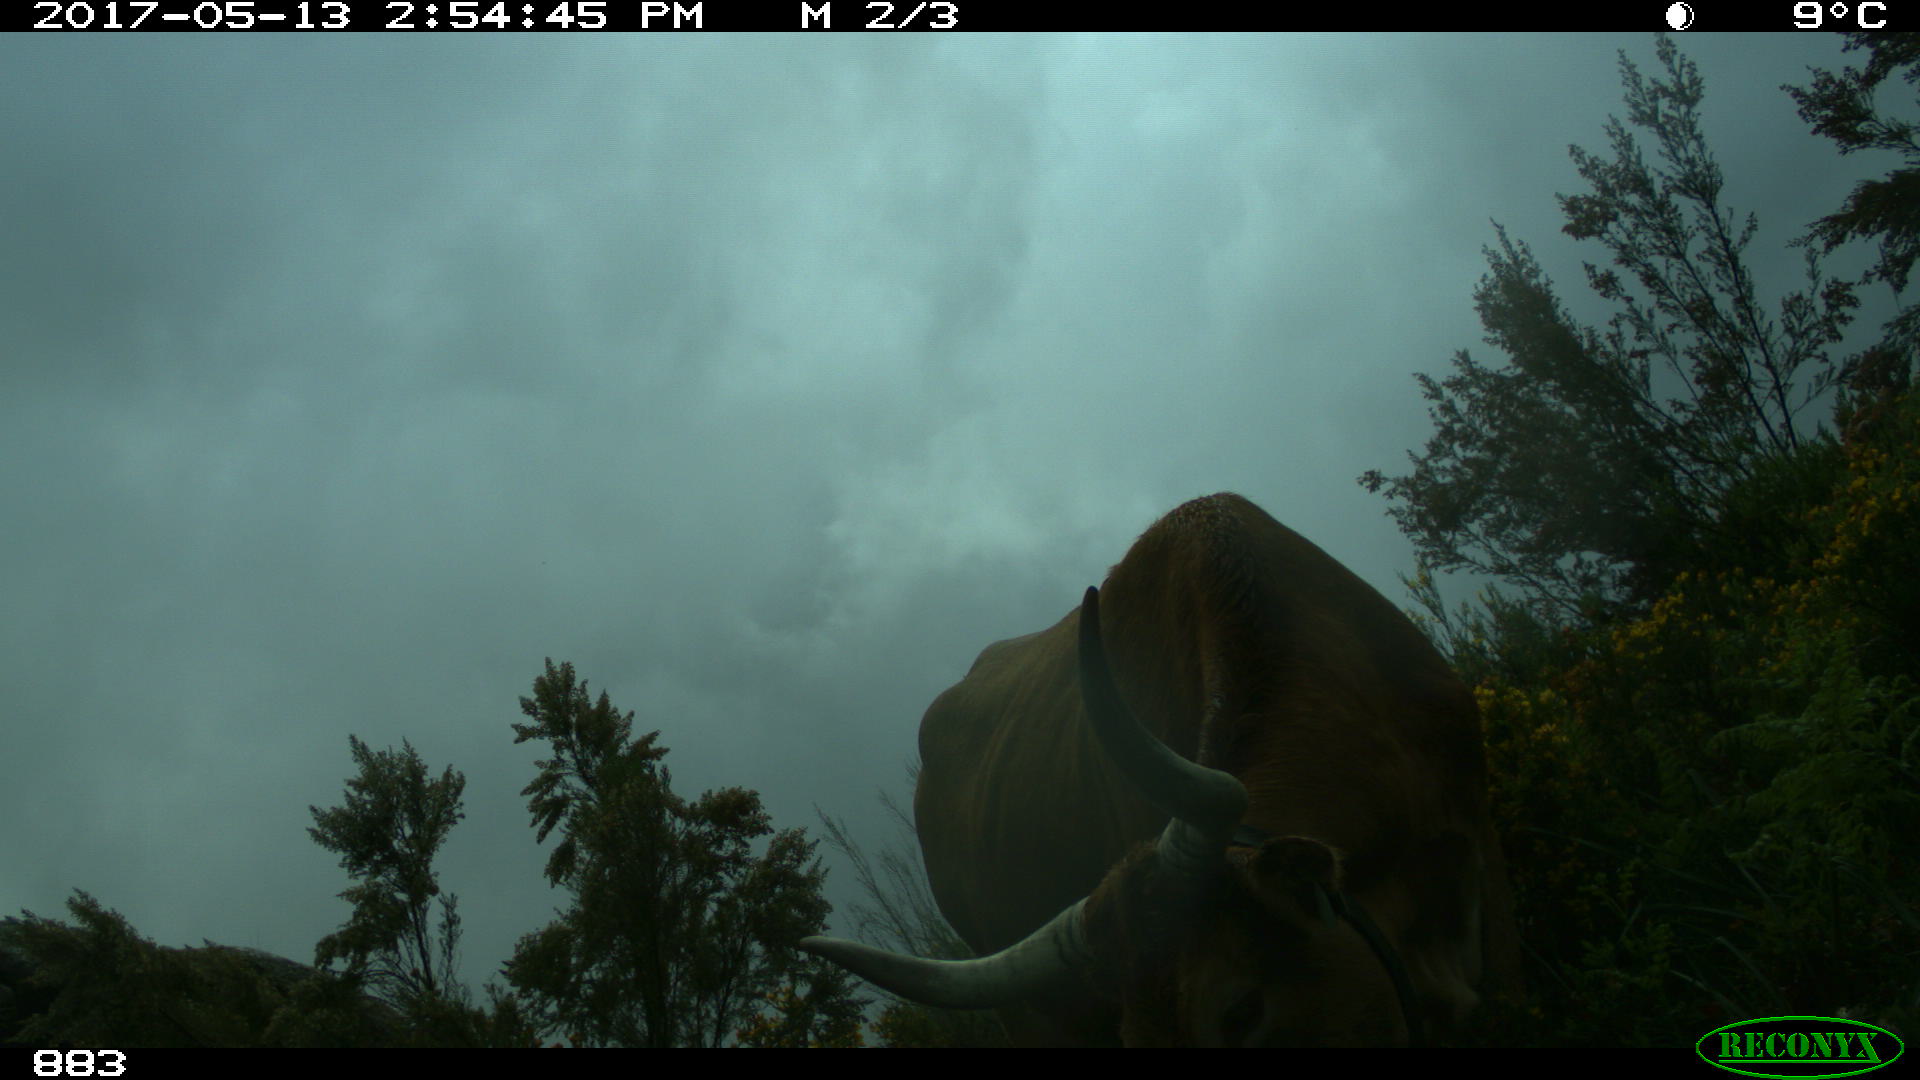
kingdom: Animalia
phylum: Chordata
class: Mammalia
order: Artiodactyla
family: Bovidae
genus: Bos
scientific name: Bos taurus
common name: Domesticated cattle
